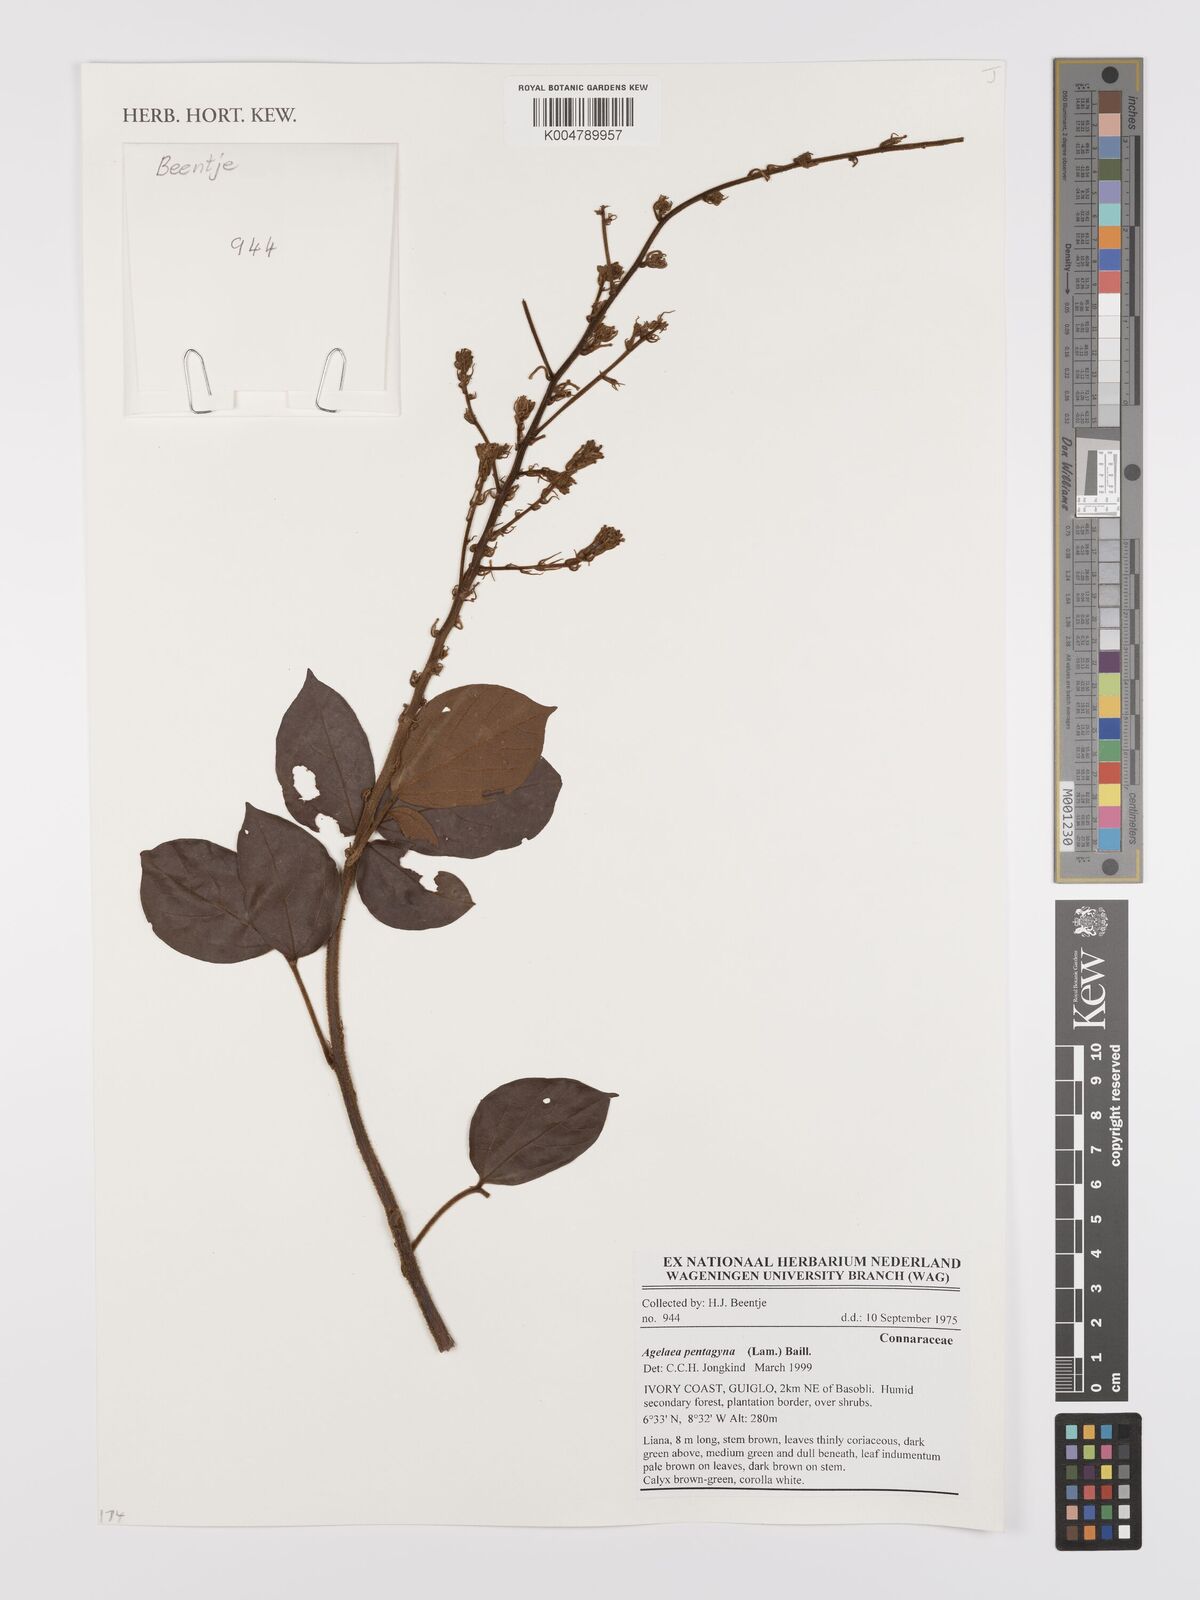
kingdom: Plantae
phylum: Tracheophyta
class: Magnoliopsida
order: Oxalidales
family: Connaraceae
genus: Agelaea
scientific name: Agelaea pentagyna
